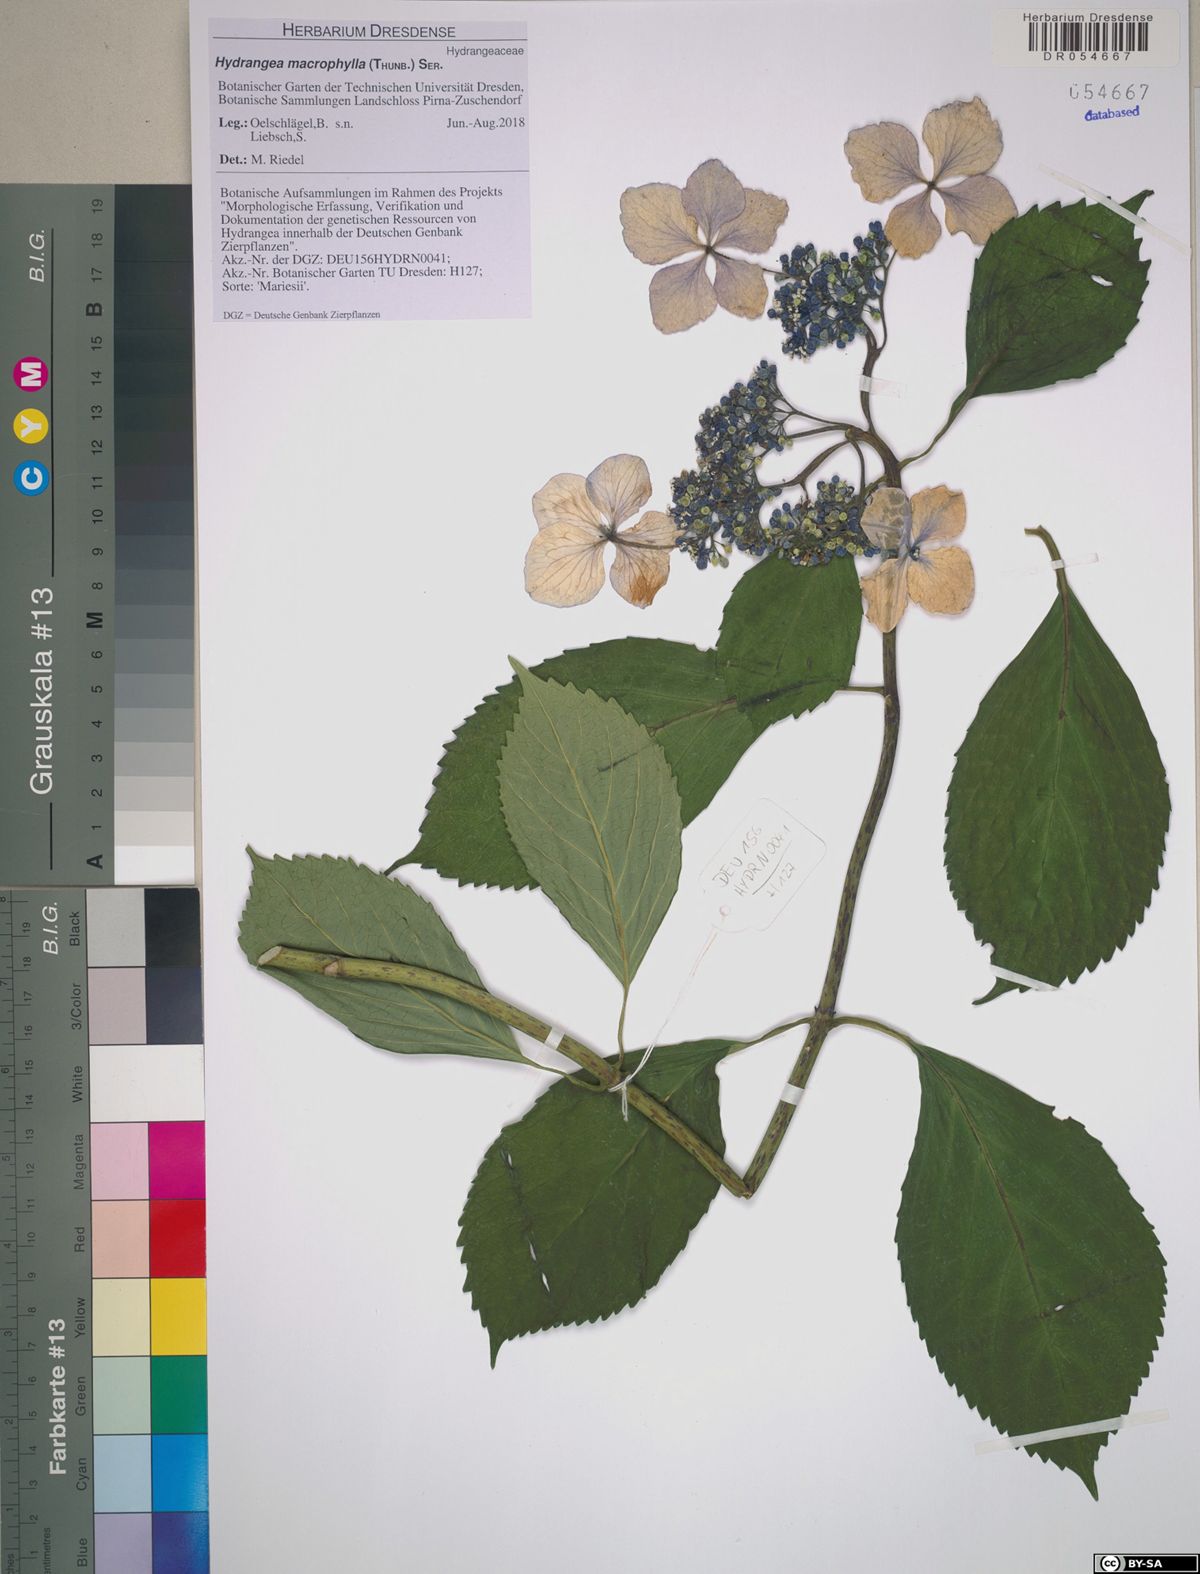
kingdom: Plantae
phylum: Tracheophyta
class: Magnoliopsida
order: Cornales
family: Hydrangeaceae
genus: Hydrangea
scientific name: Hydrangea macrophylla
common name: Hydrangea
